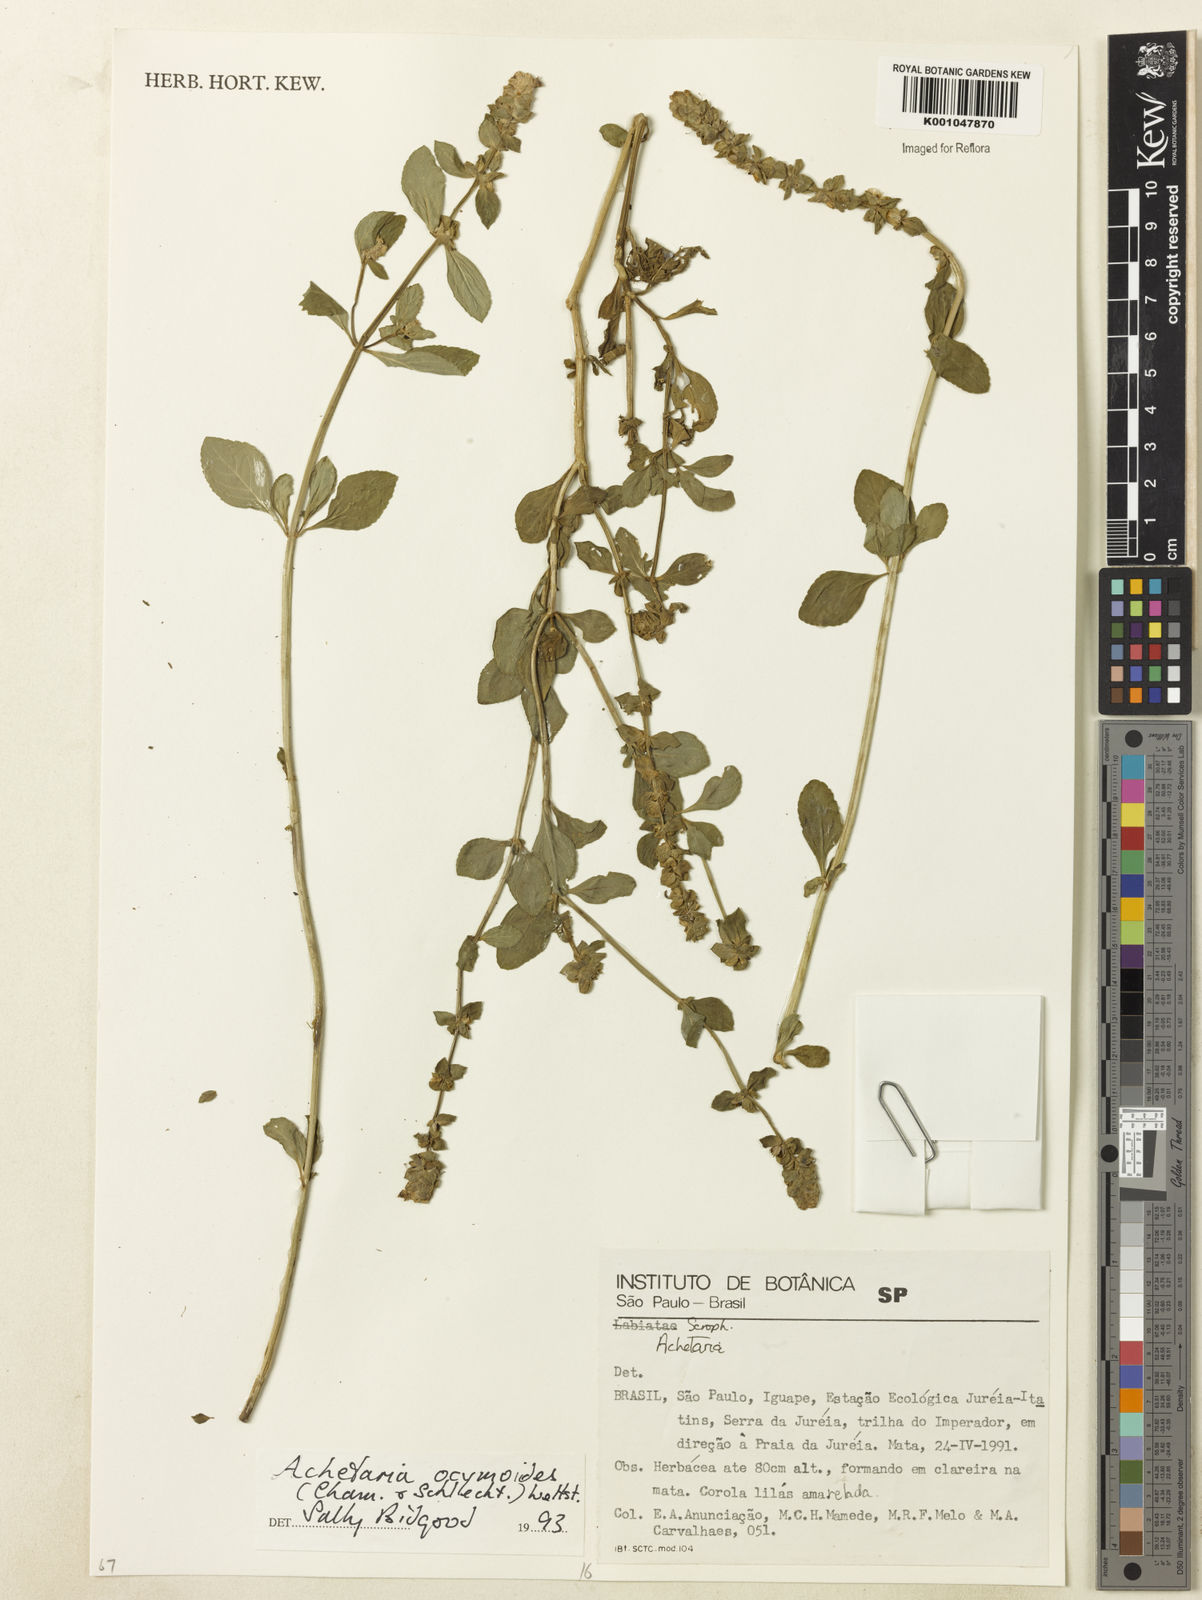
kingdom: Plantae
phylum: Tracheophyta
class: Magnoliopsida
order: Lamiales
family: Plantaginaceae
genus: Matourea
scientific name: Matourea ocymoides
